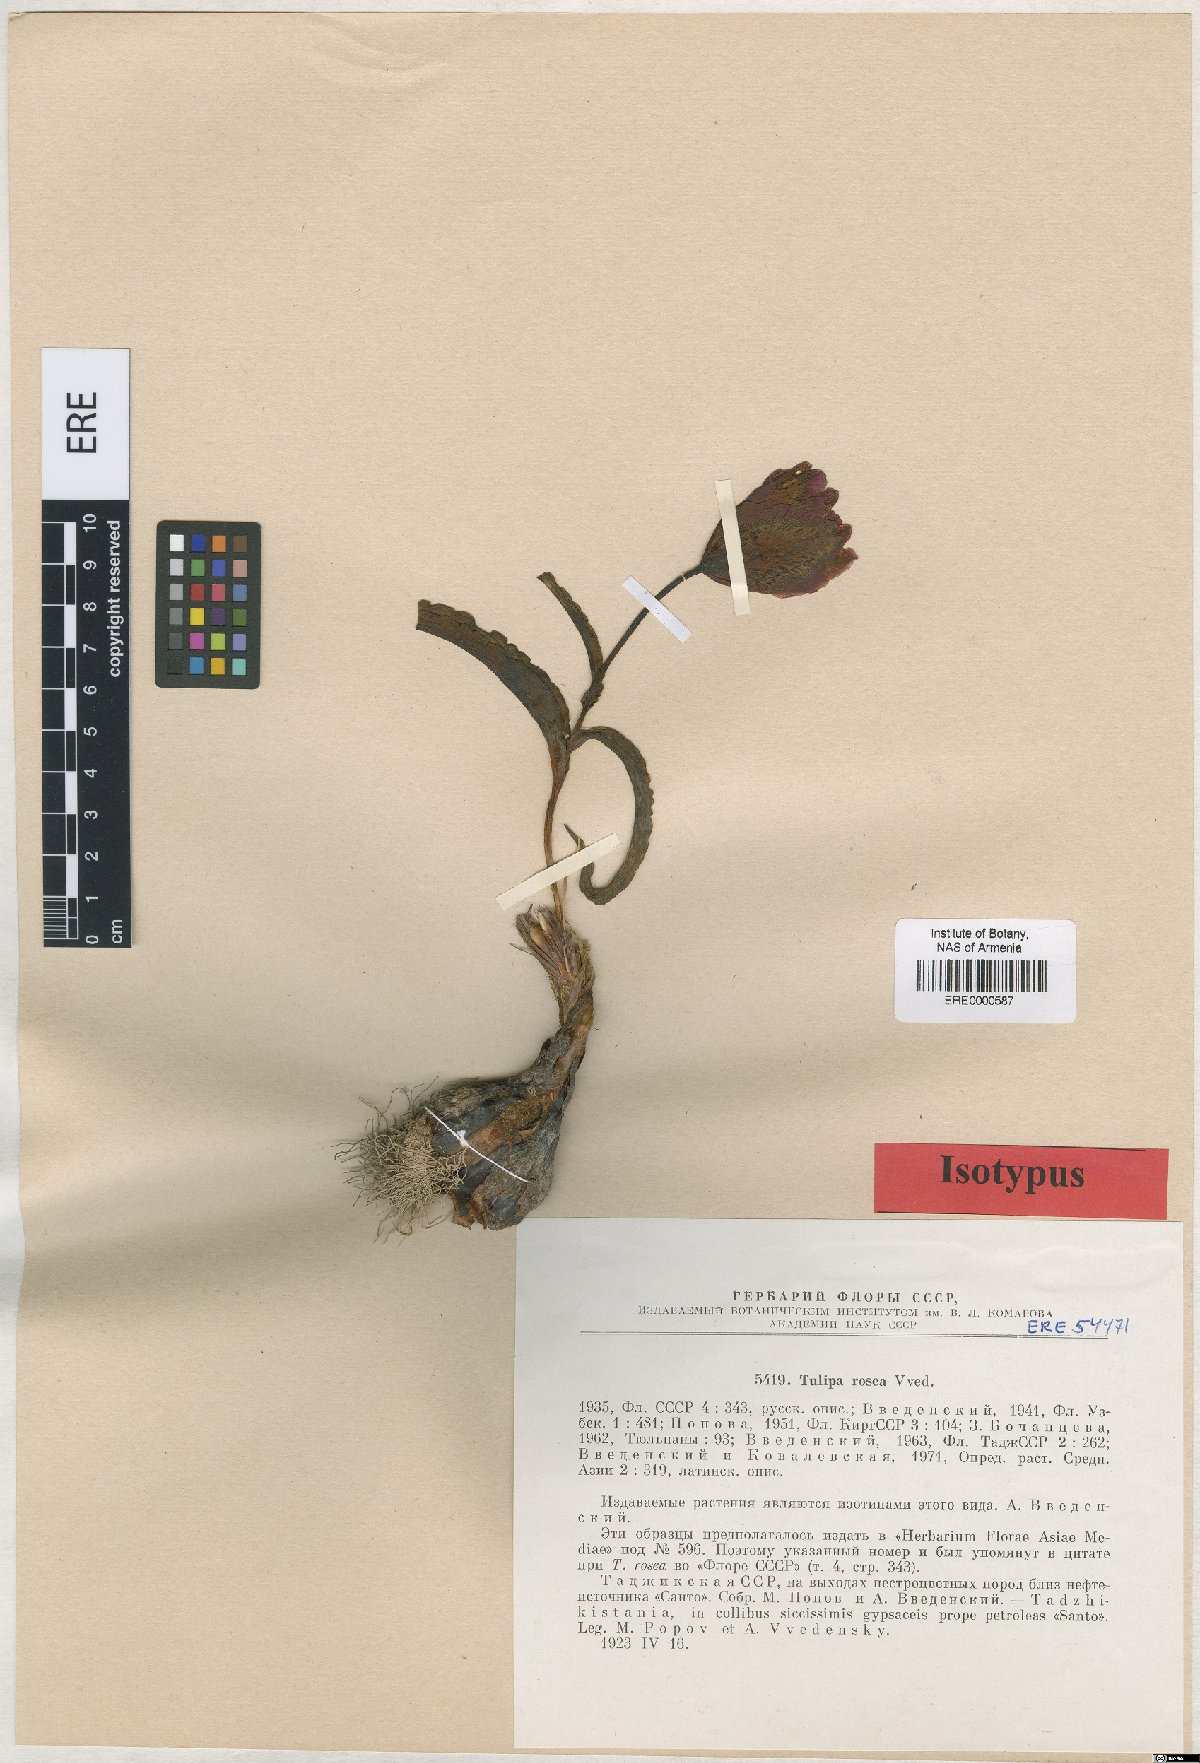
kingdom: Plantae
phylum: Tracheophyta
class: Liliopsida
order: Liliales
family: Liliaceae
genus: Tulipa
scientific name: Tulipa korolkowii
